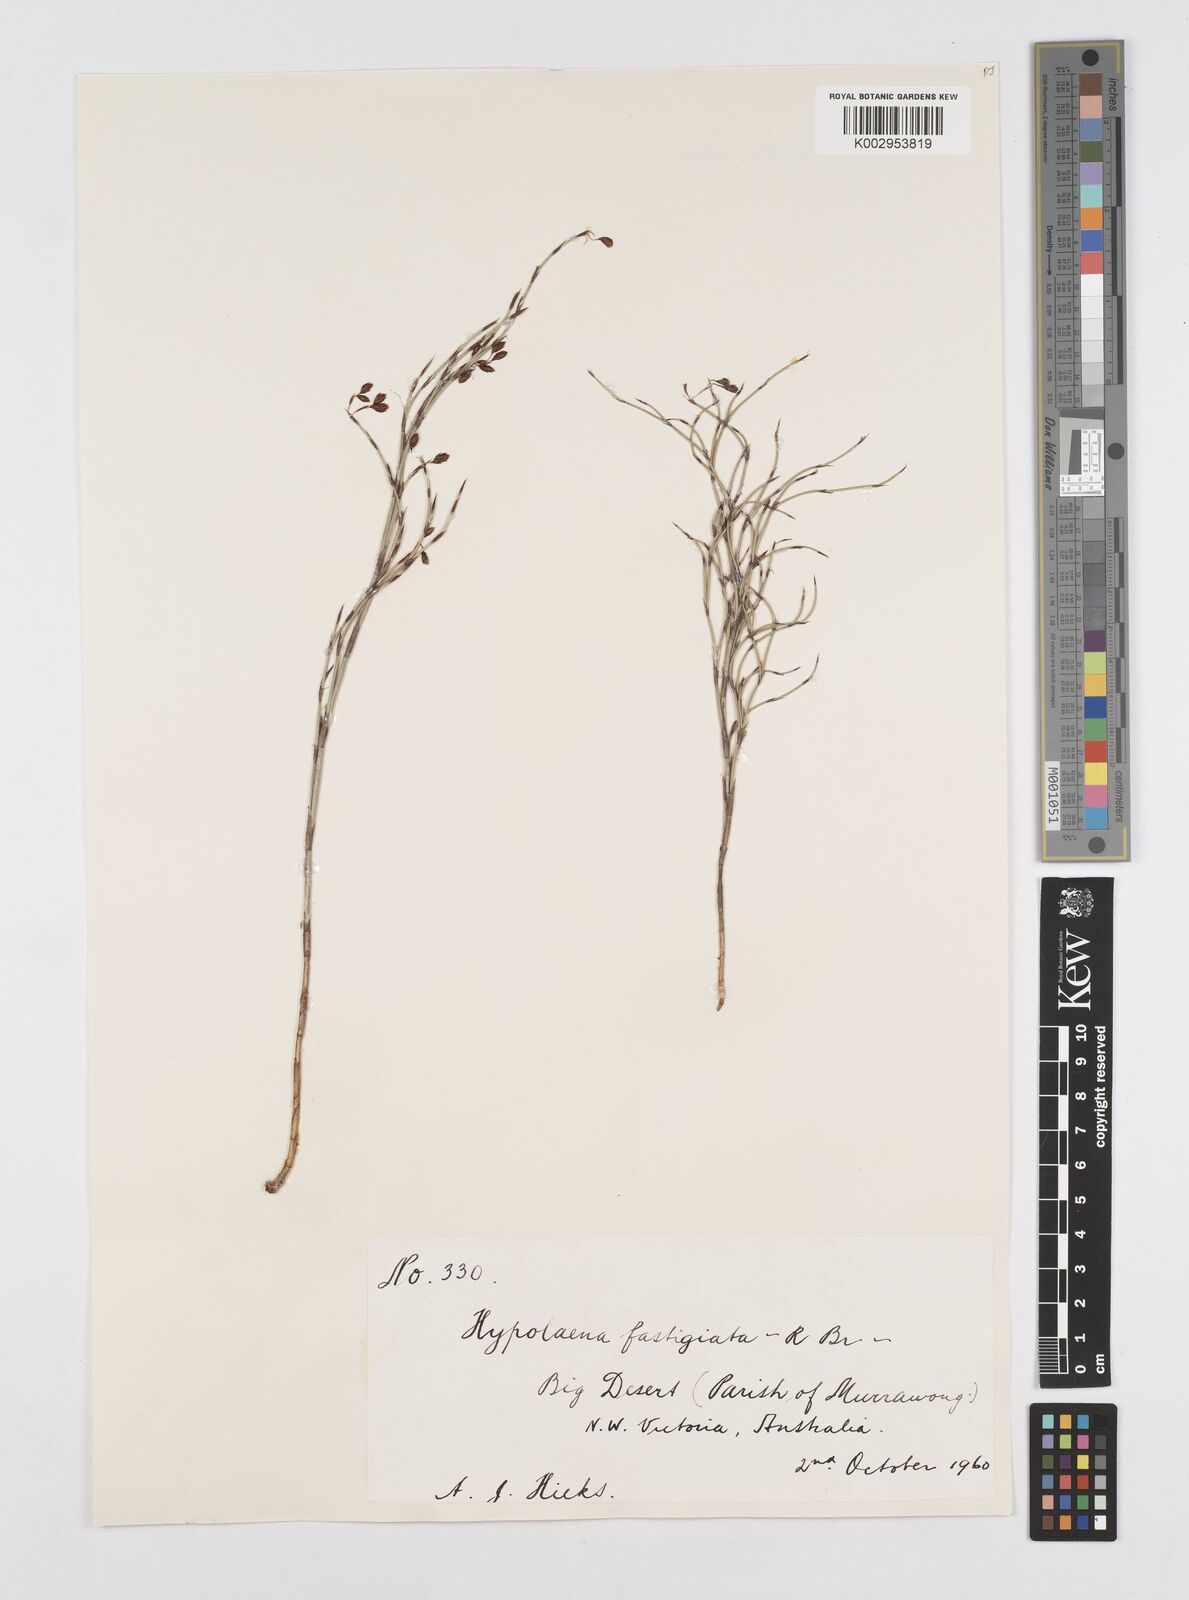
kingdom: Plantae
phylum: Tracheophyta
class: Liliopsida
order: Poales
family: Restionaceae
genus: Hypolaena
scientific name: Hypolaena fastigiata
